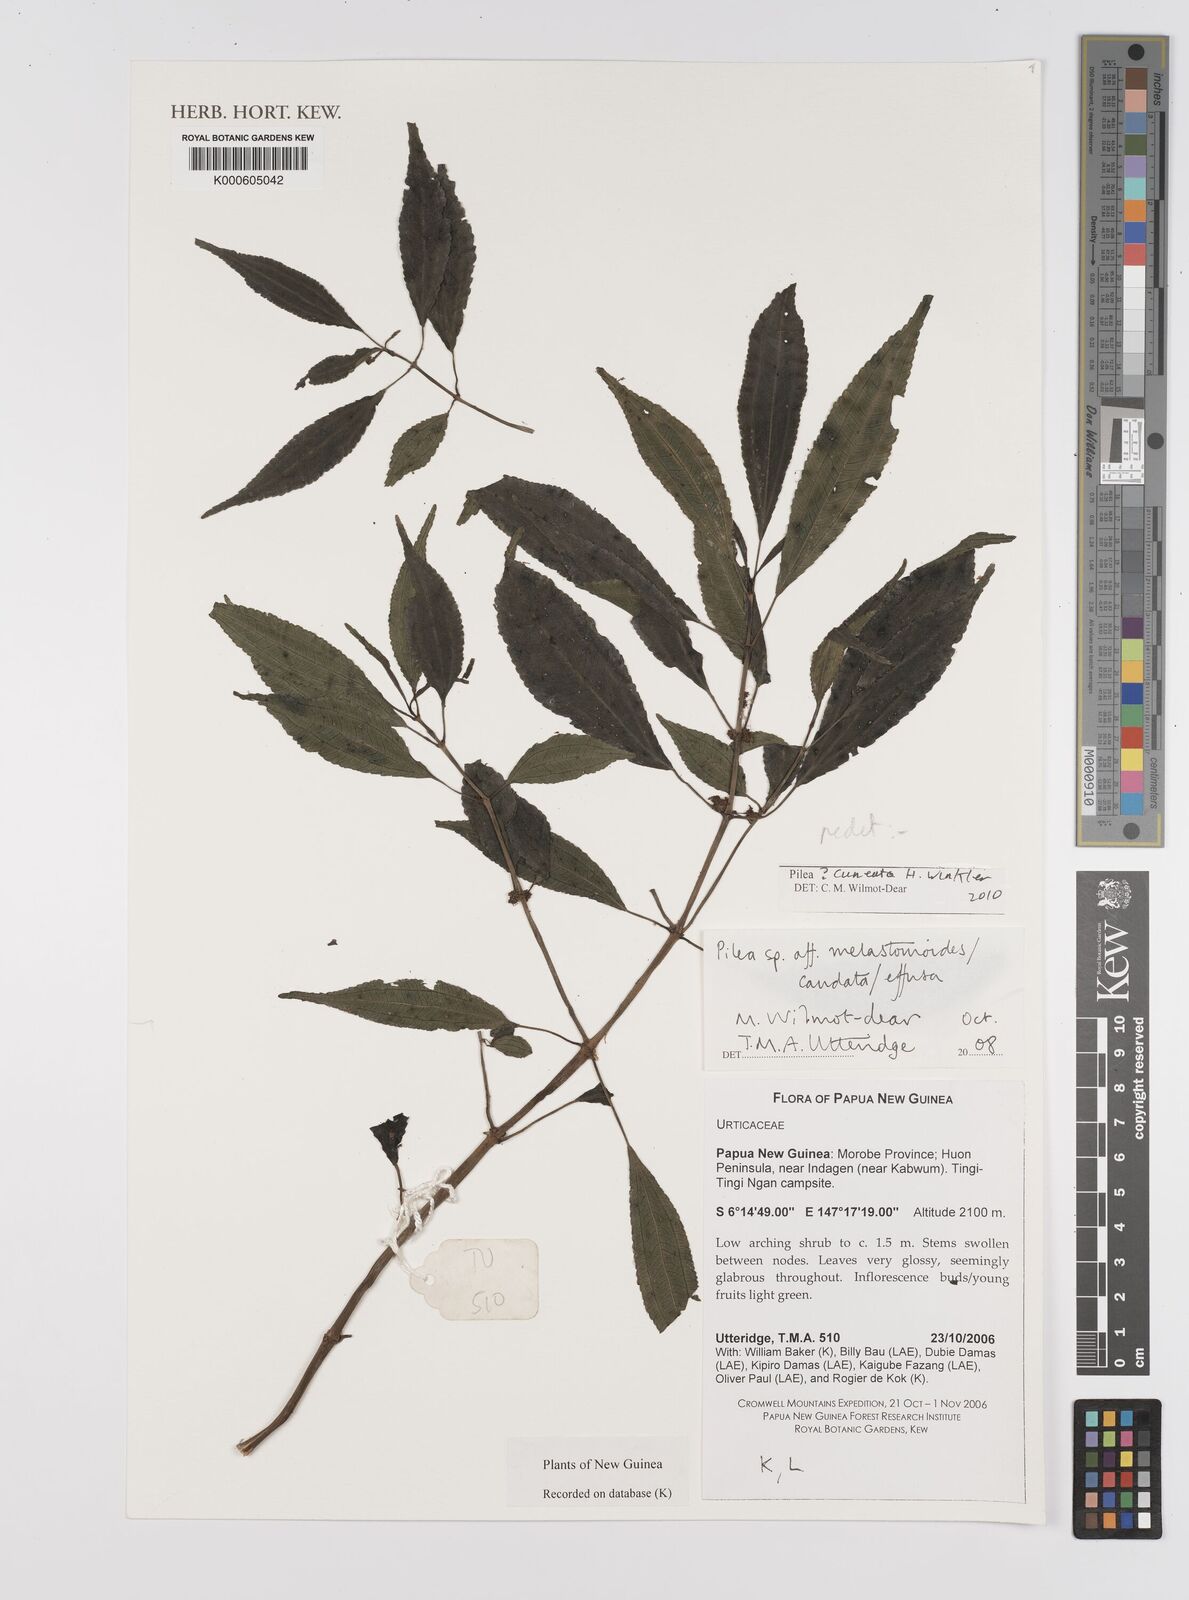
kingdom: Plantae
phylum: Tracheophyta
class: Magnoliopsida
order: Rosales
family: Urticaceae
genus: Pilea
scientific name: Pilea
